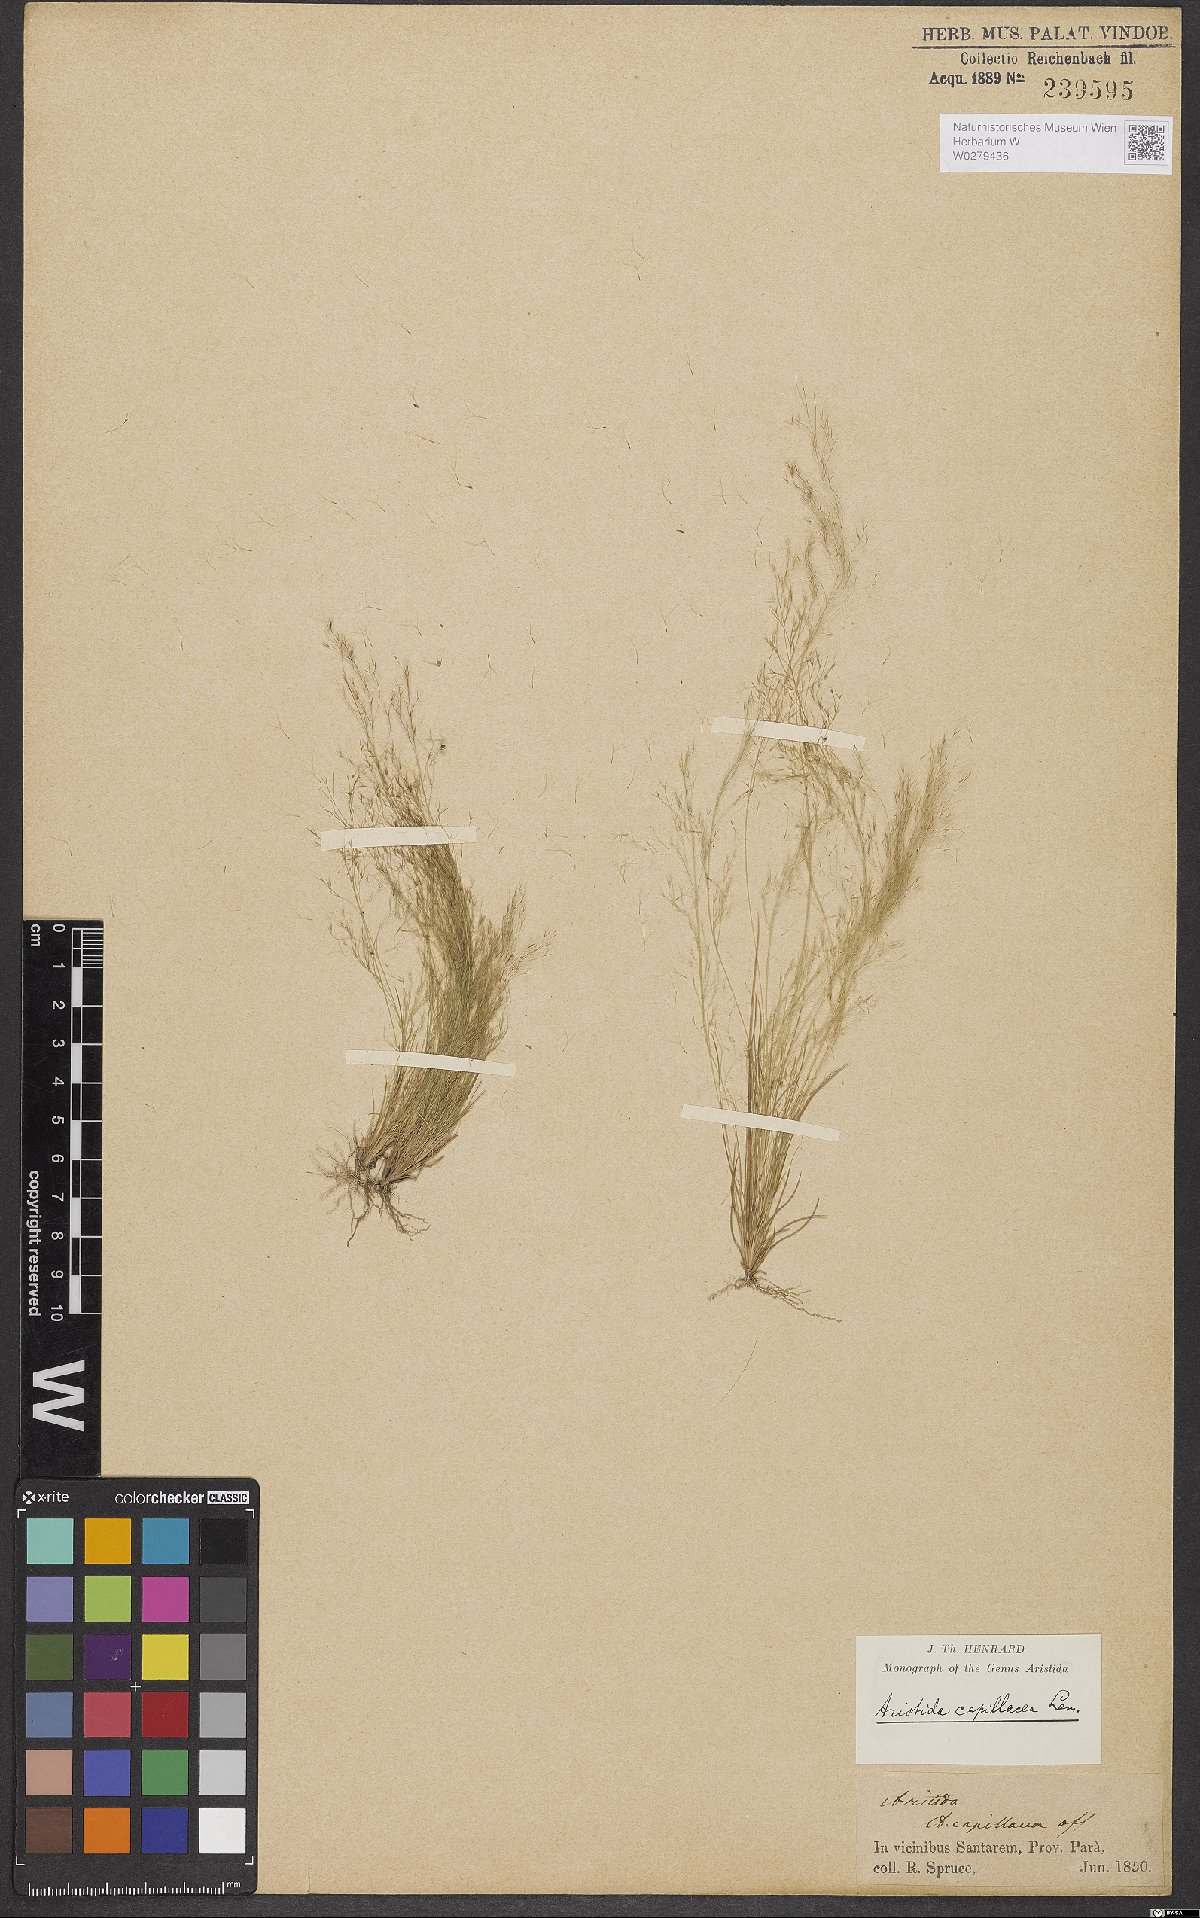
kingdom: Plantae
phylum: Tracheophyta
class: Liliopsida
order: Poales
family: Poaceae
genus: Aristida
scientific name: Aristida capillacea
